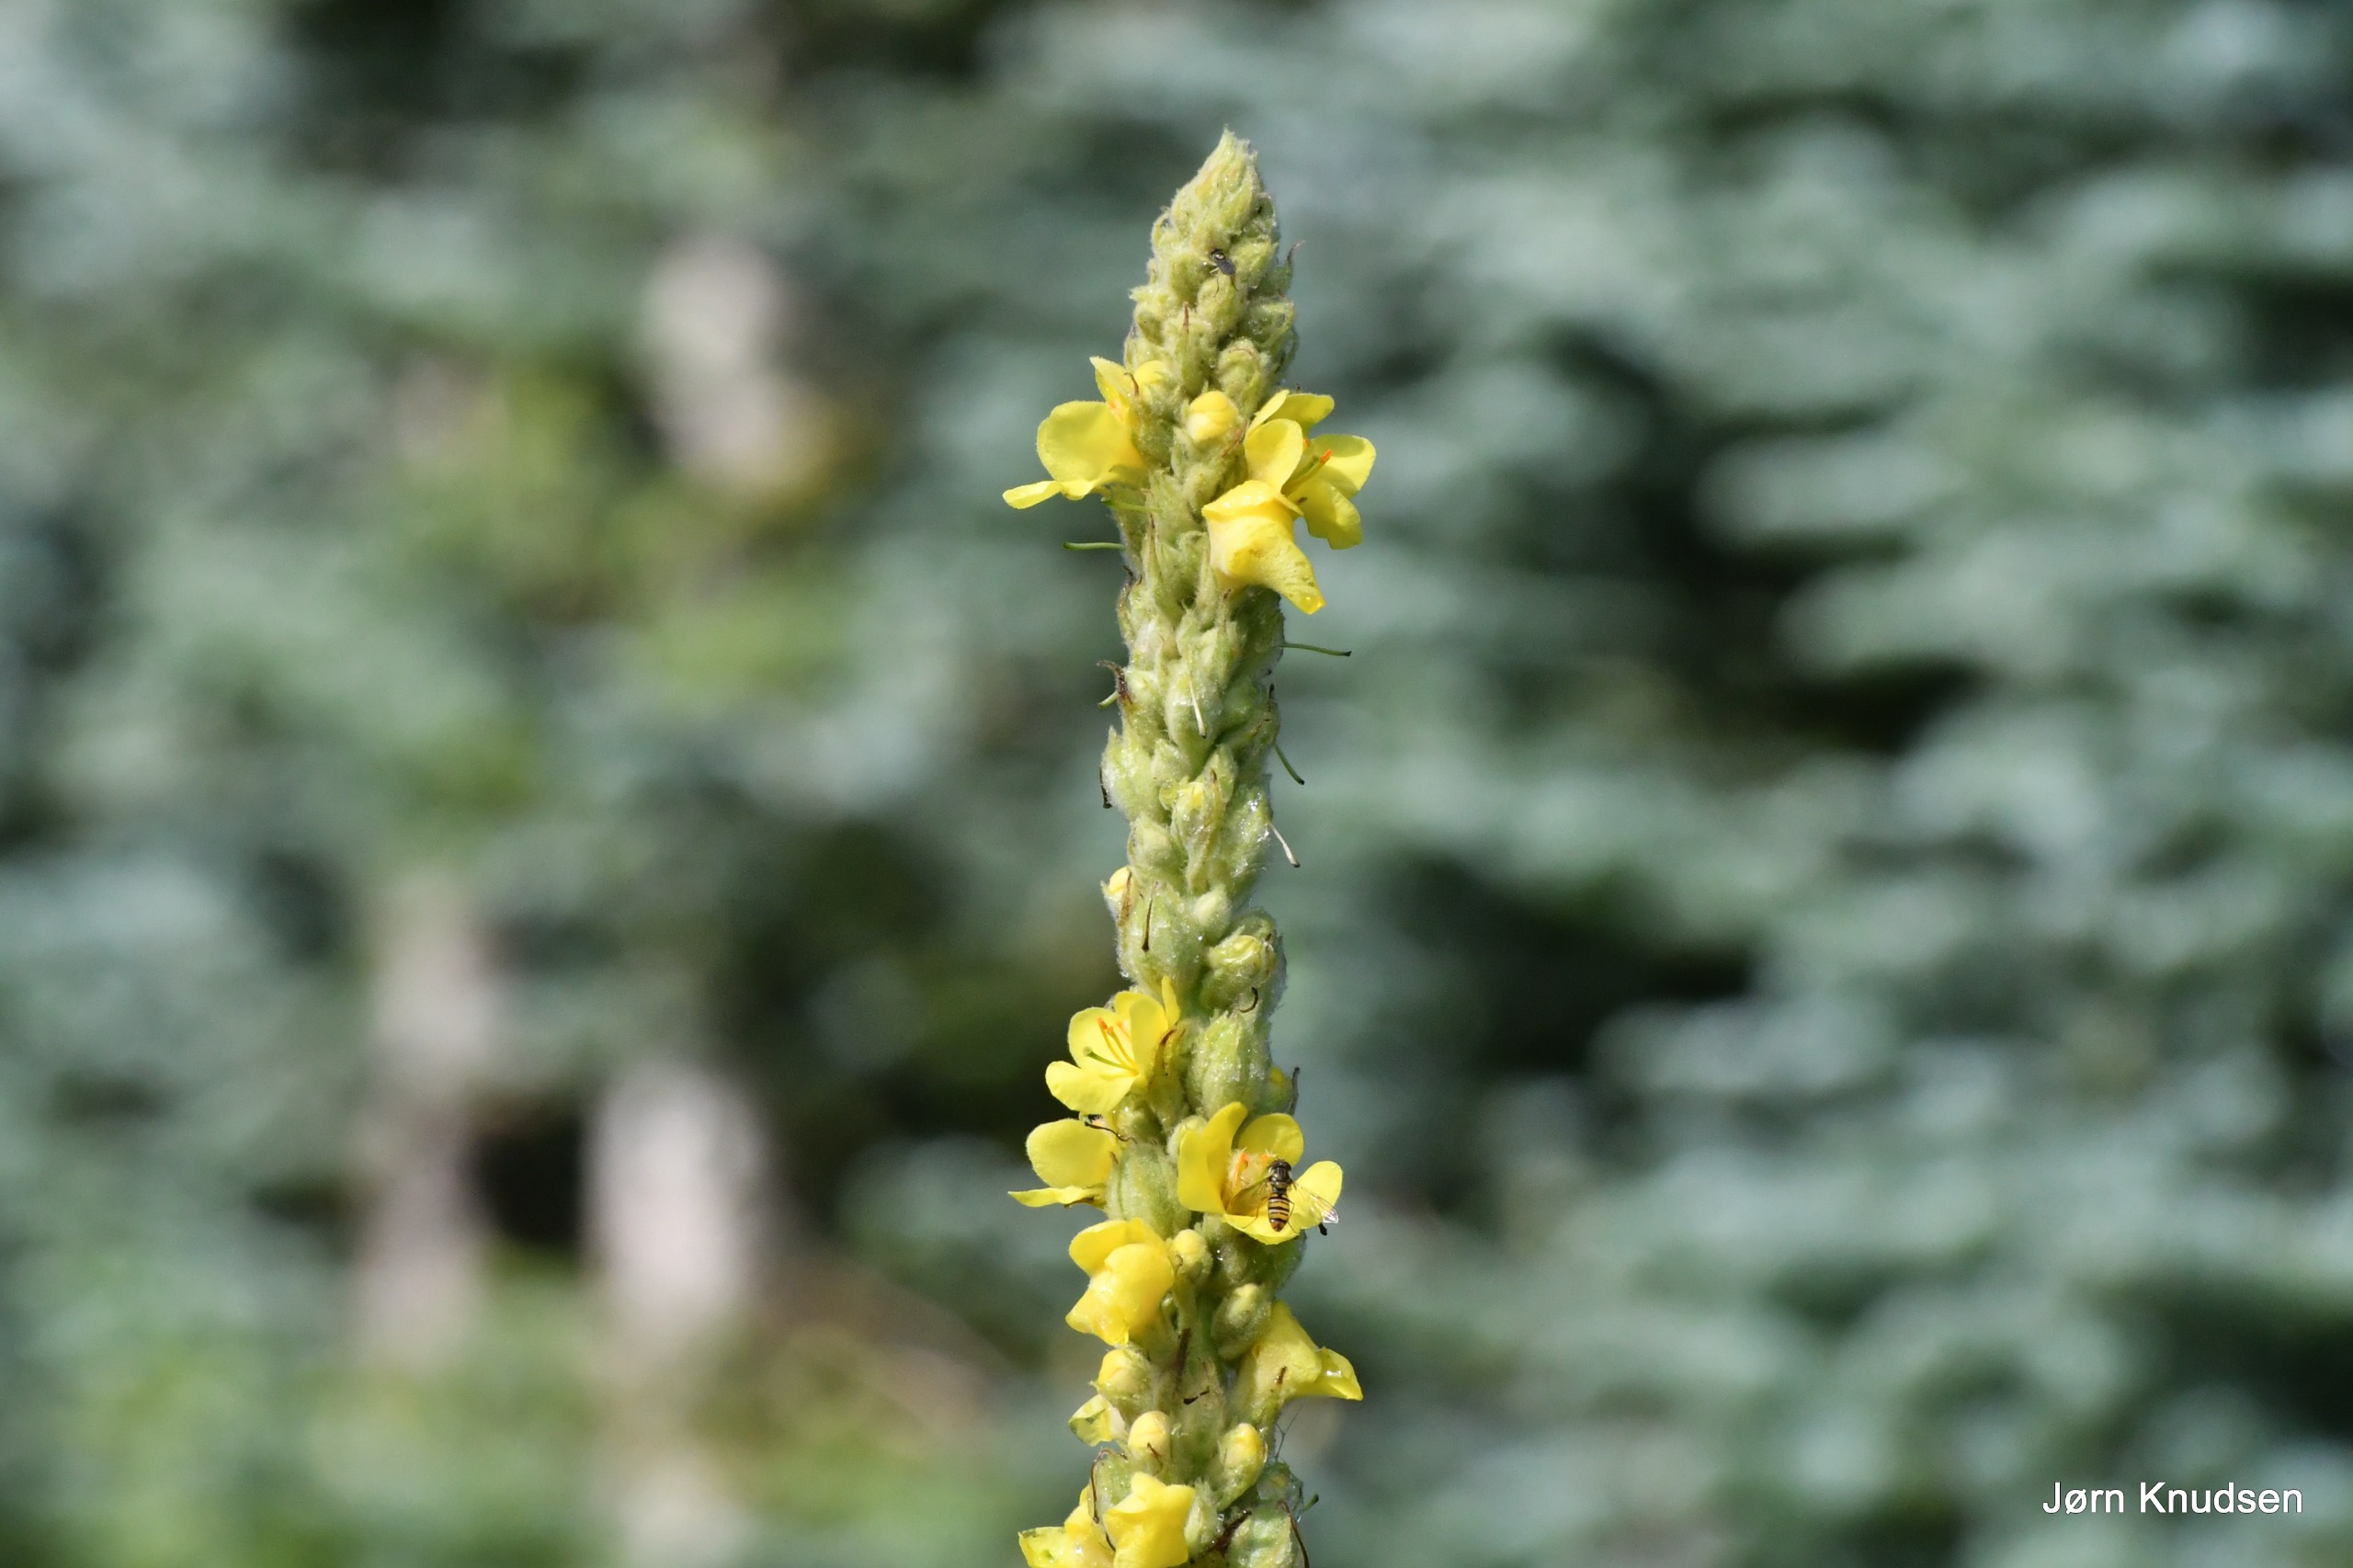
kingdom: Plantae
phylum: Tracheophyta
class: Magnoliopsida
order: Lamiales
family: Scrophulariaceae
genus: Verbascum
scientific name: Verbascum thapsus
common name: Filtbladet kongelys
